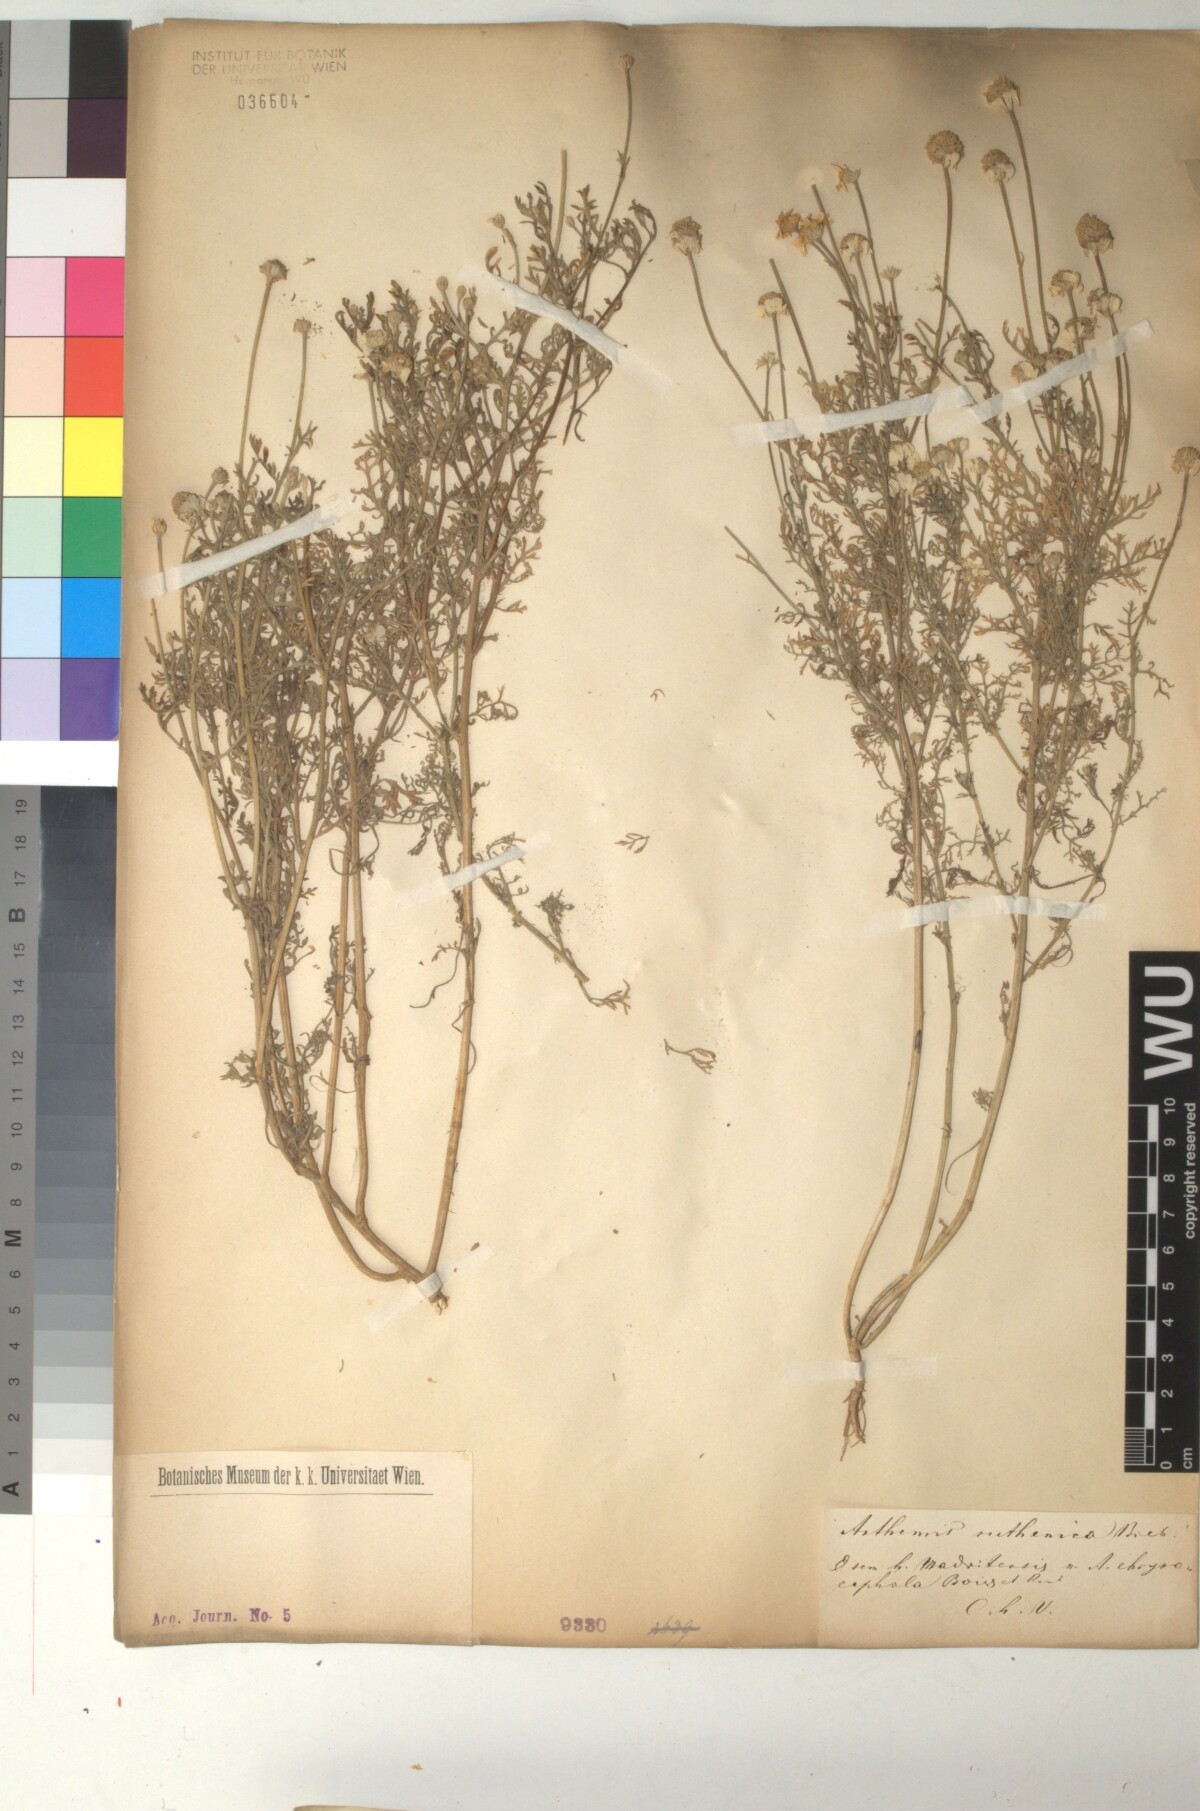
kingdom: Plantae
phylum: Tracheophyta
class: Magnoliopsida
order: Asterales
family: Asteraceae
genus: Anthemis
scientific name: Anthemis cotula
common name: Stinking chamomile
